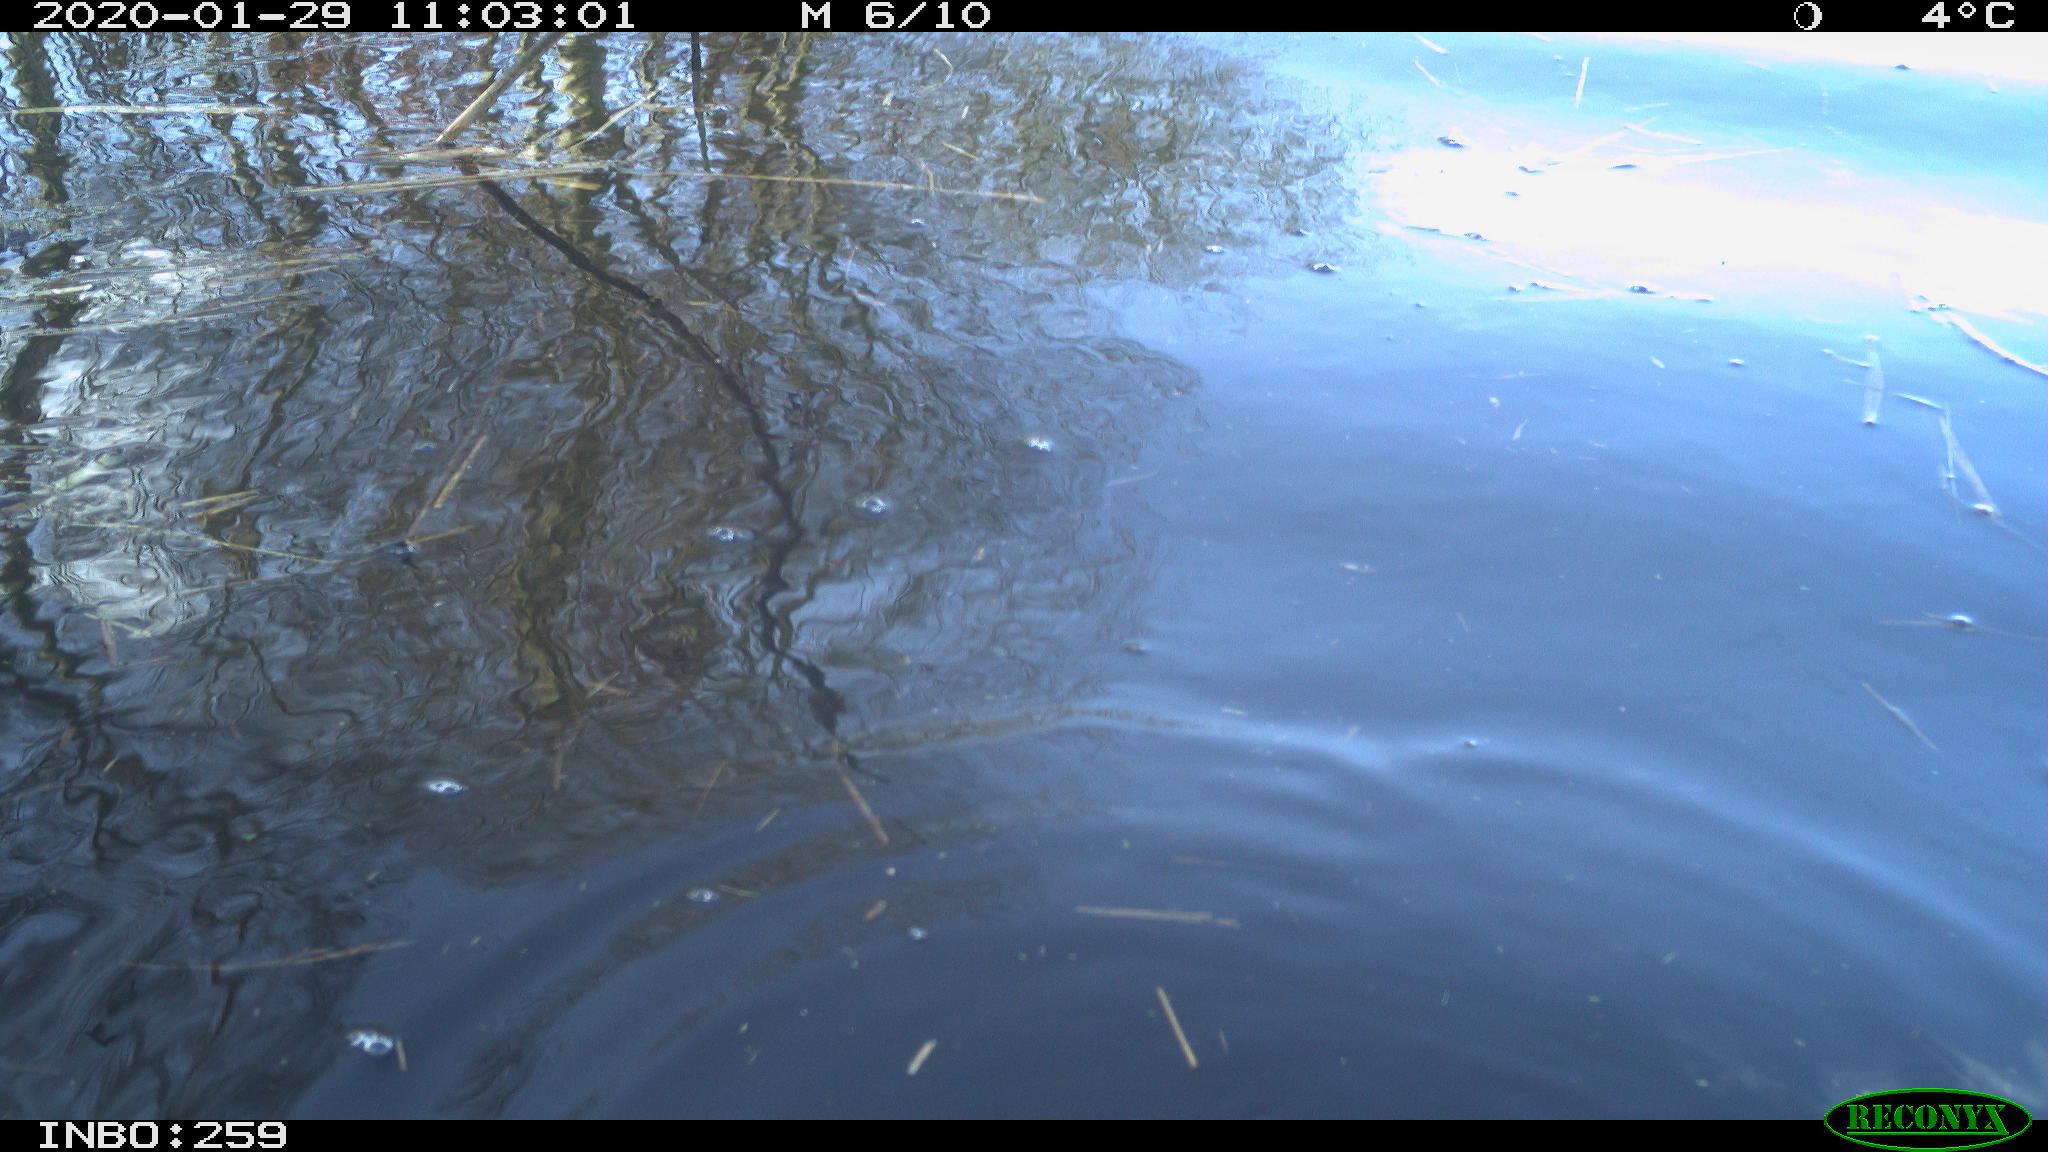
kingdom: Animalia
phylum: Chordata
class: Aves
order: Gruiformes
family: Rallidae
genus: Gallinula
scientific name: Gallinula chloropus
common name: Common moorhen
